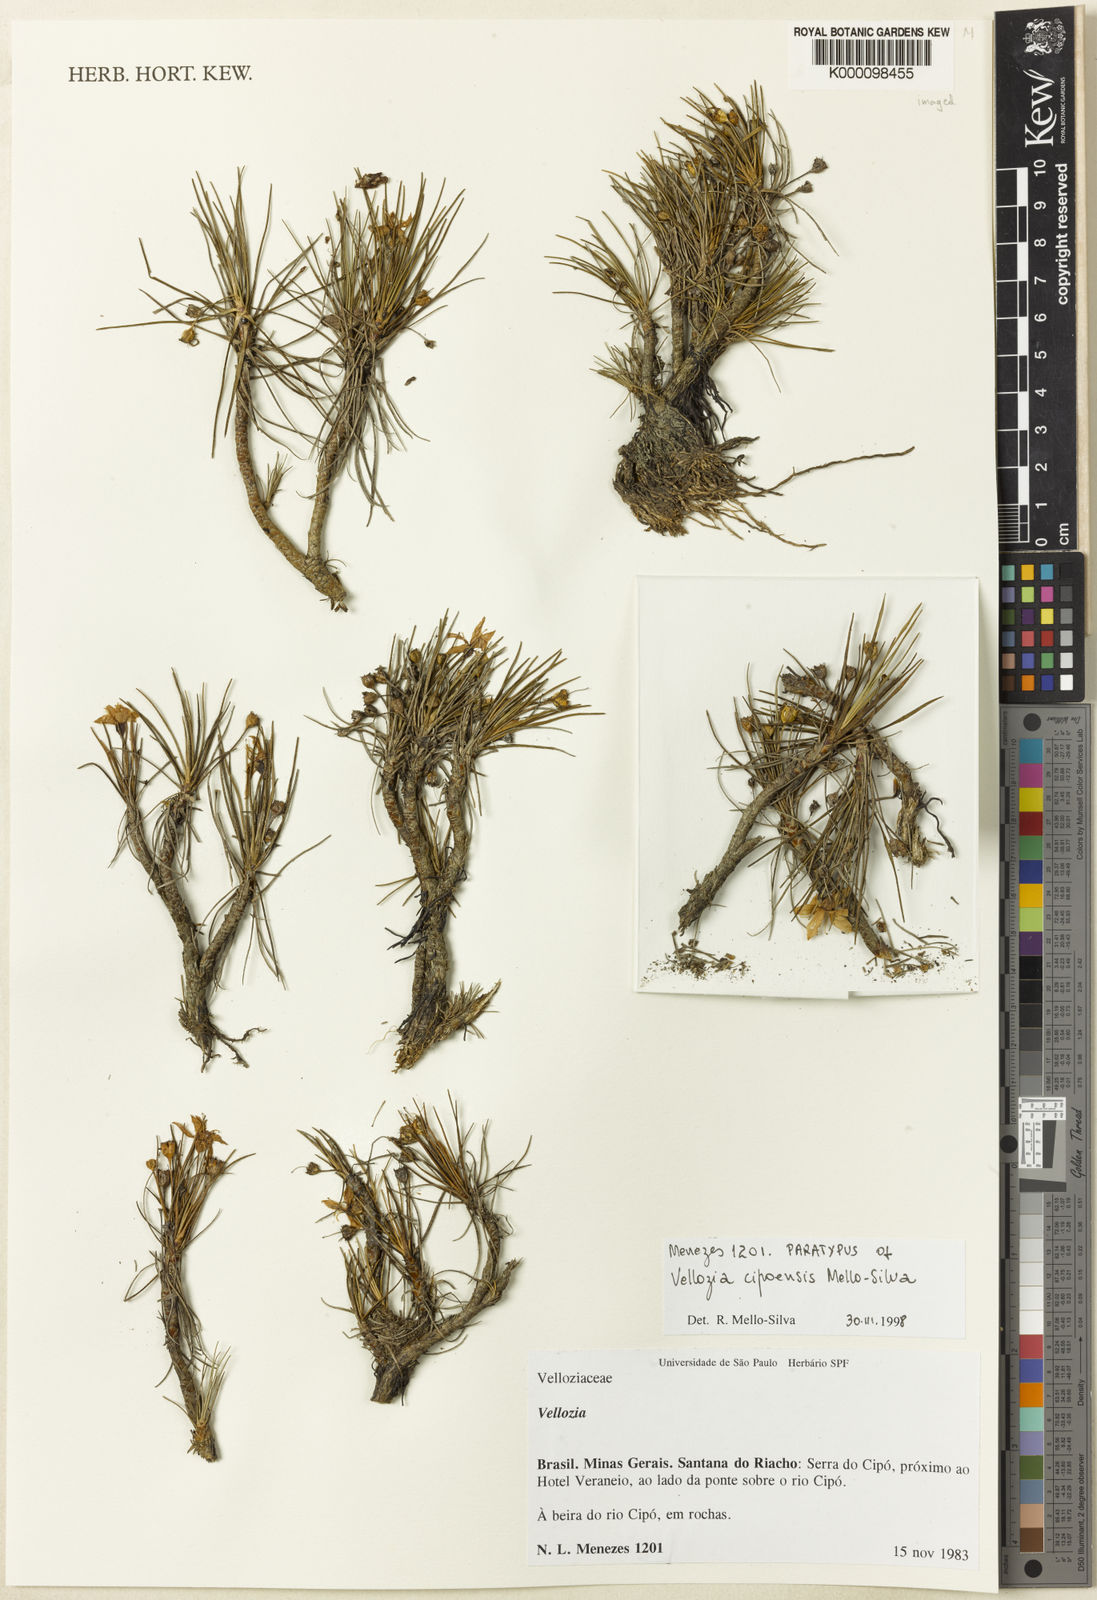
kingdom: Plantae
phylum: Tracheophyta
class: Liliopsida
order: Pandanales
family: Velloziaceae
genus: Vellozia
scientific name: Vellozia
